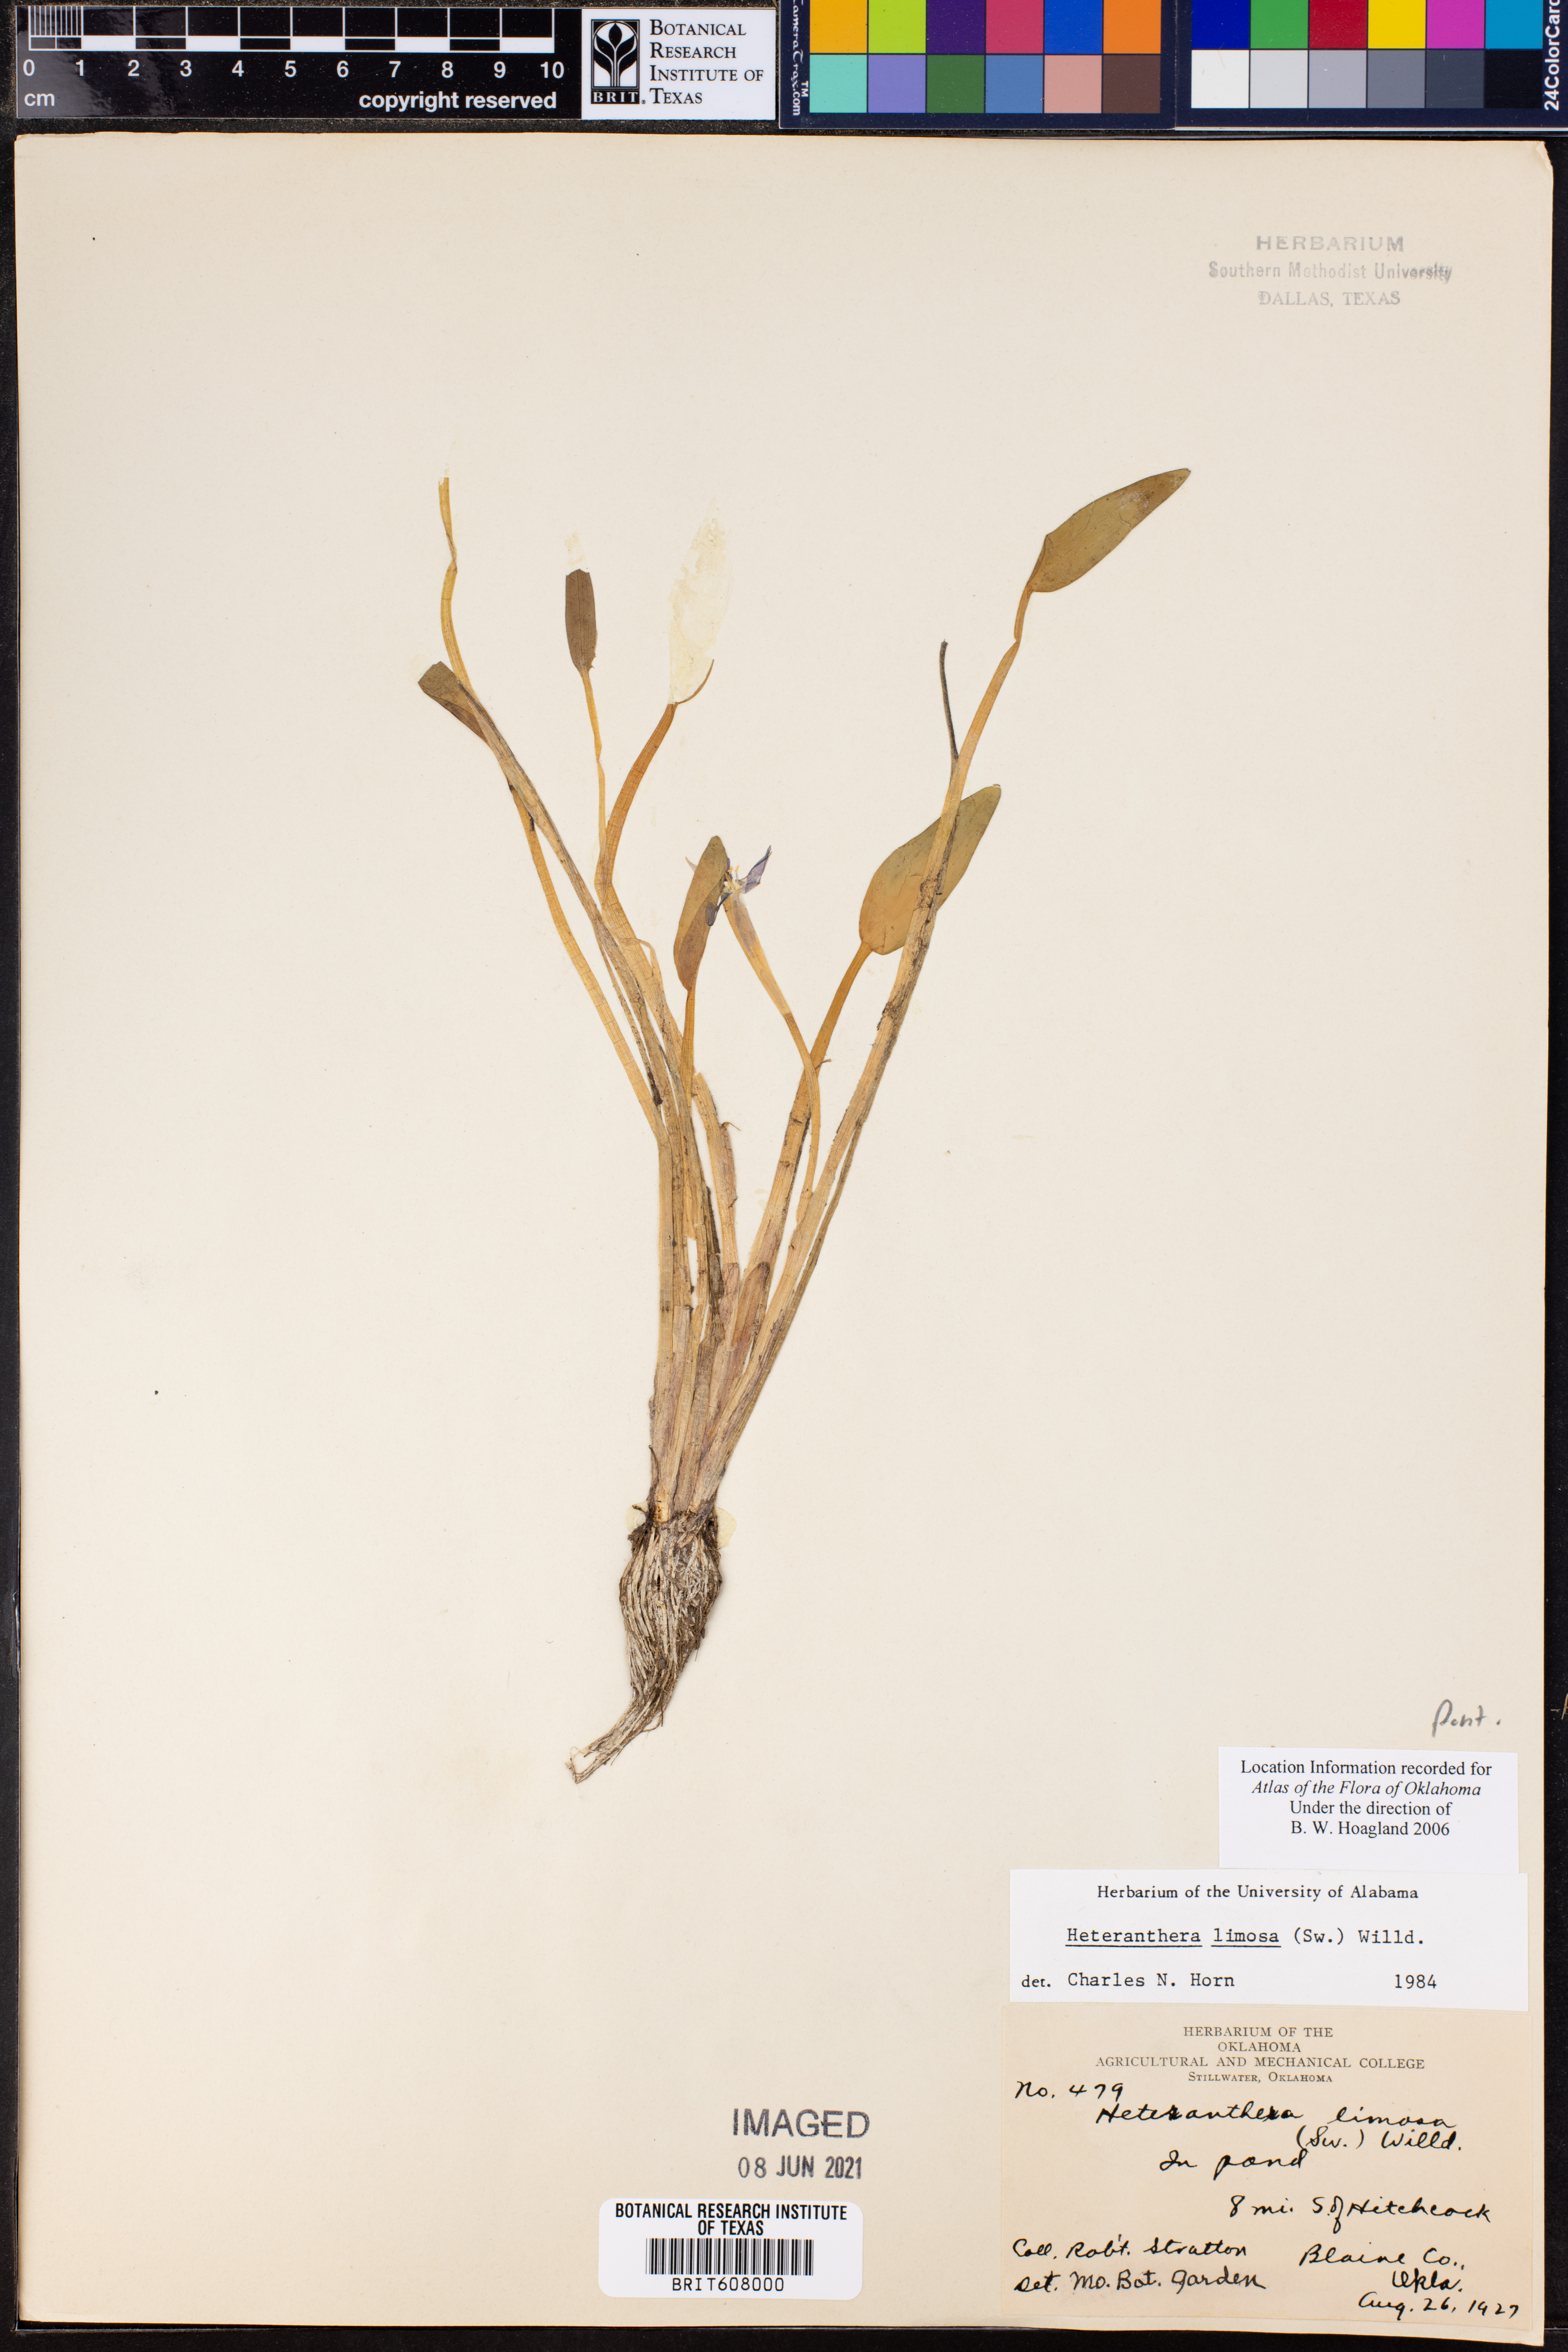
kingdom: Plantae
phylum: Tracheophyta
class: Liliopsida
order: Commelinales
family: Pontederiaceae
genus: Heteranthera
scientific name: Heteranthera limosa
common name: Blue mud-plantain
